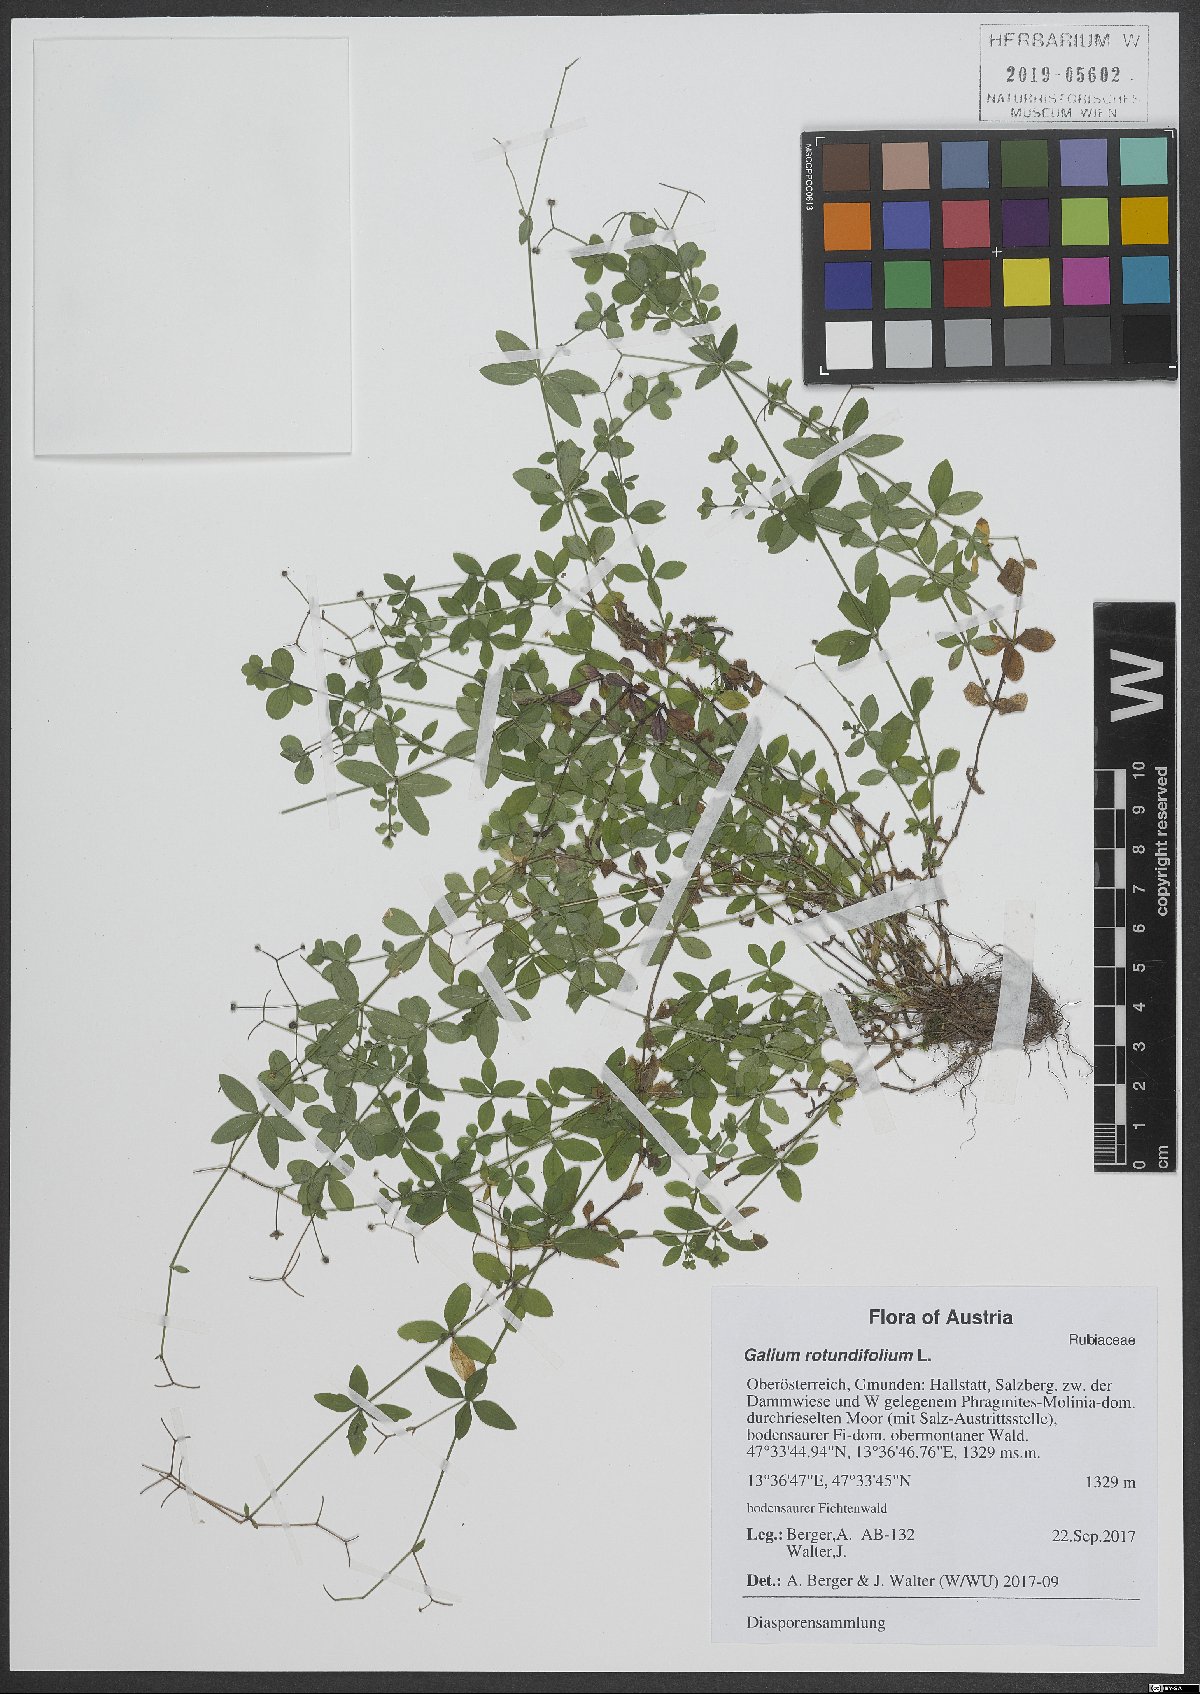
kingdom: Plantae
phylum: Tracheophyta
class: Magnoliopsida
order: Gentianales
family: Rubiaceae
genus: Galium
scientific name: Galium rotundifolium
